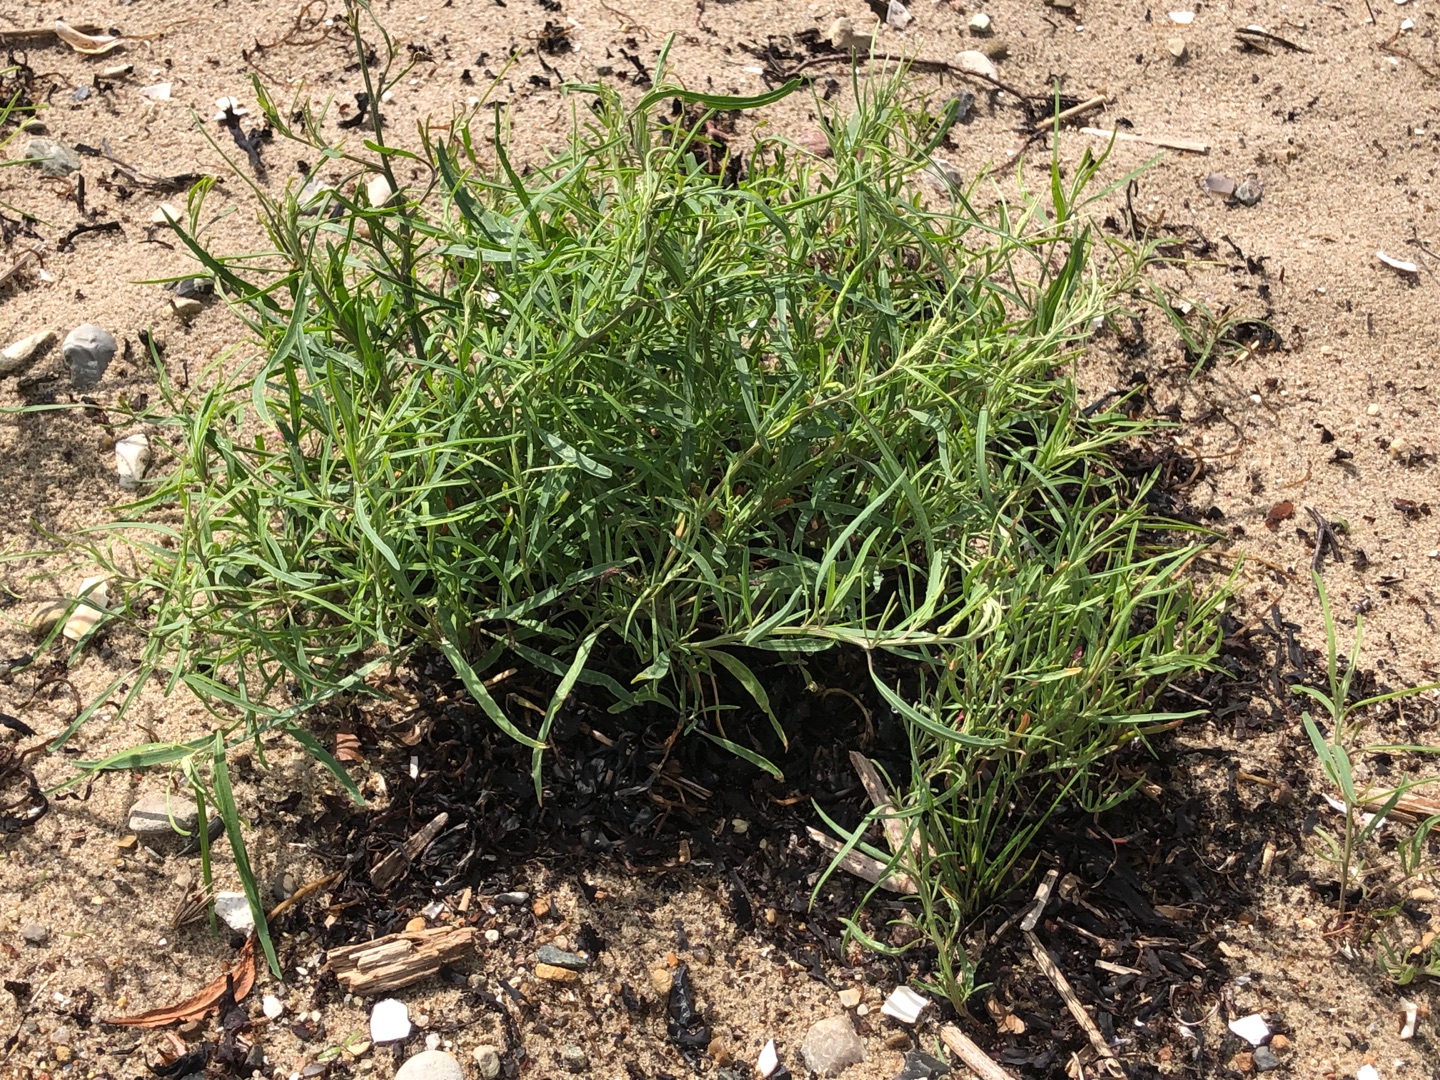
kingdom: Plantae
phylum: Tracheophyta
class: Magnoliopsida
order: Caryophyllales
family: Amaranthaceae
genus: Atriplex
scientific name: Atriplex littoralis
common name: Strand-mælde
